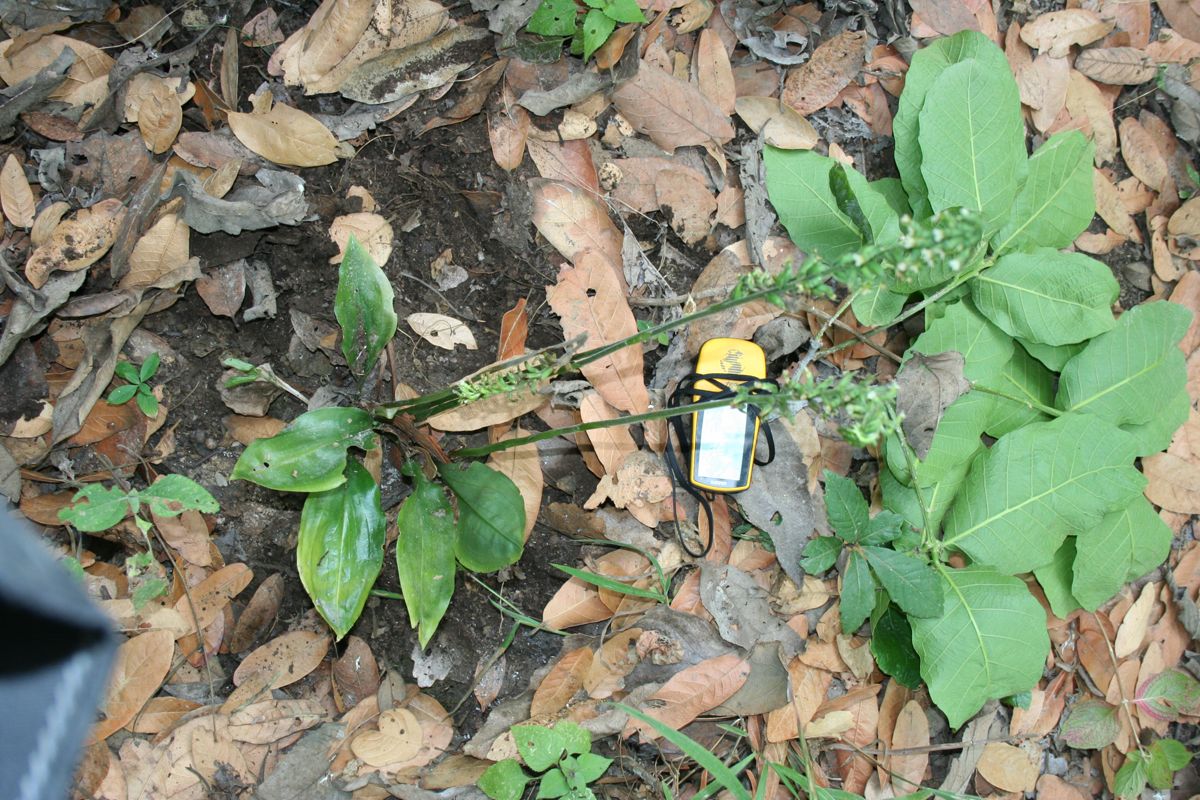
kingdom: Plantae
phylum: Tracheophyta
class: Liliopsida
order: Asparagales
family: Orchidaceae
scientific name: Orchidaceae
